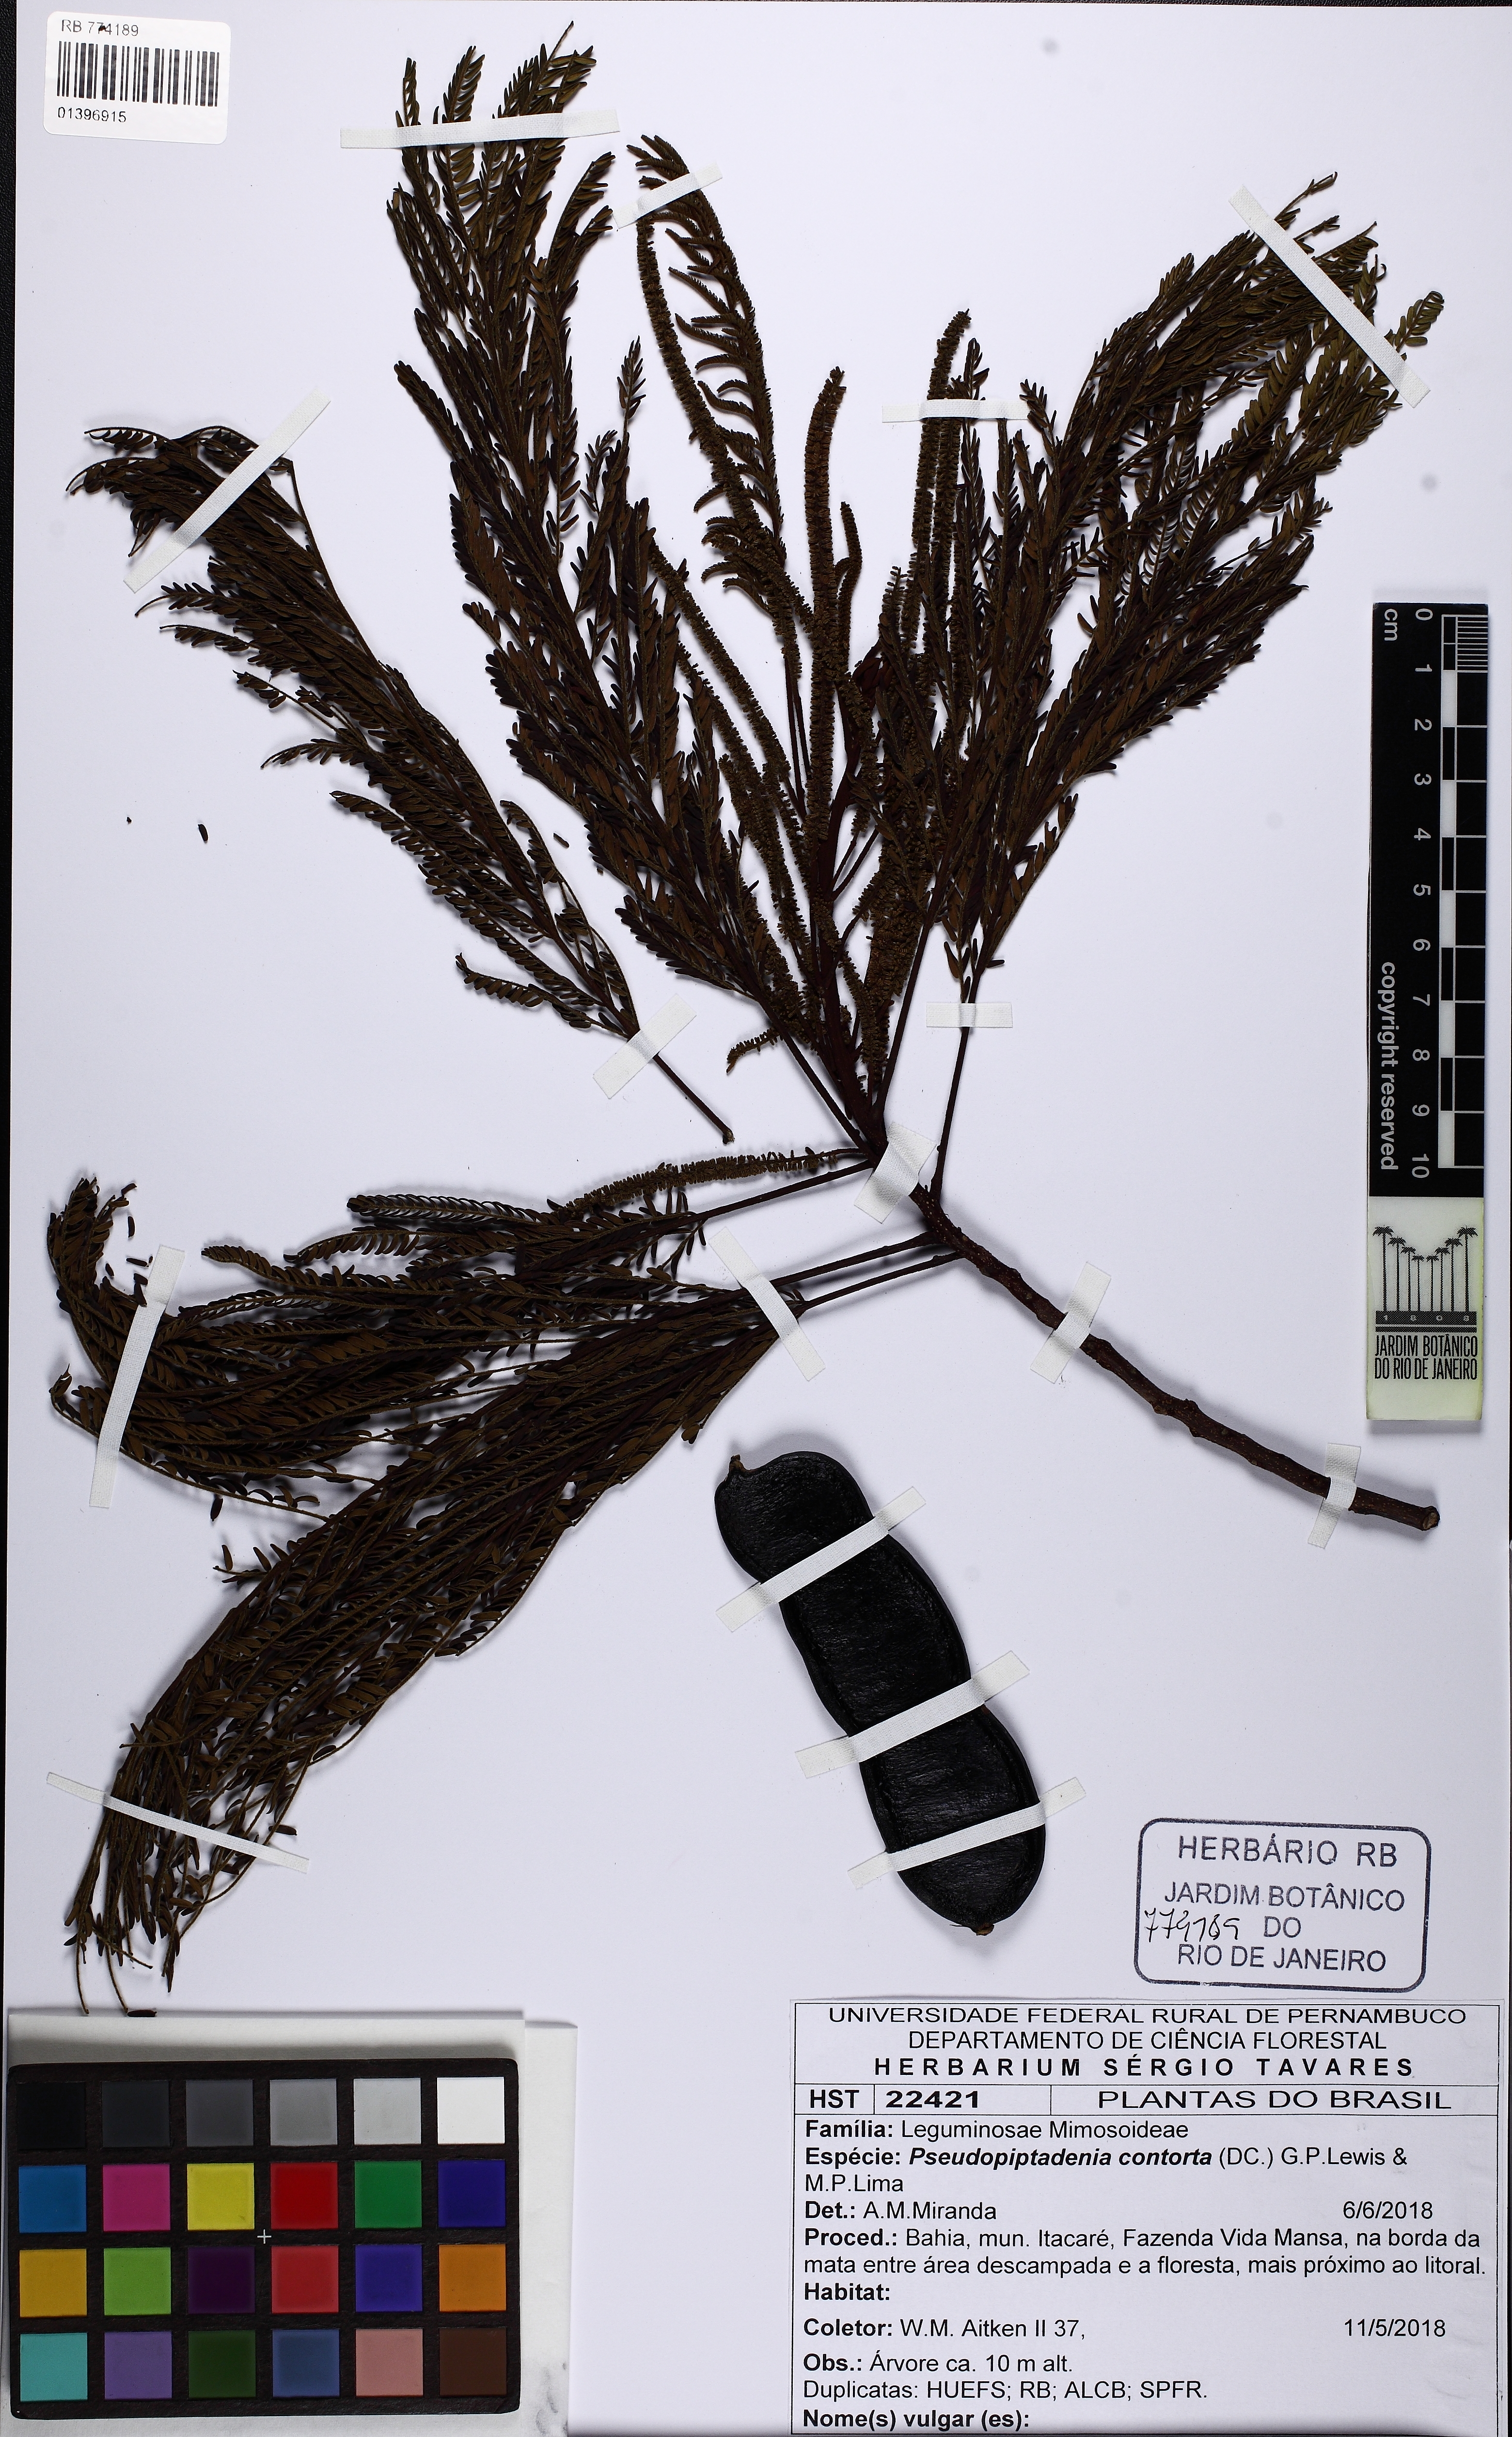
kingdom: Plantae
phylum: Tracheophyta
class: Magnoliopsida
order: Fabales
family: Fabaceae
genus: Pseudopiptadenia
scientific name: Pseudopiptadenia warmingii
